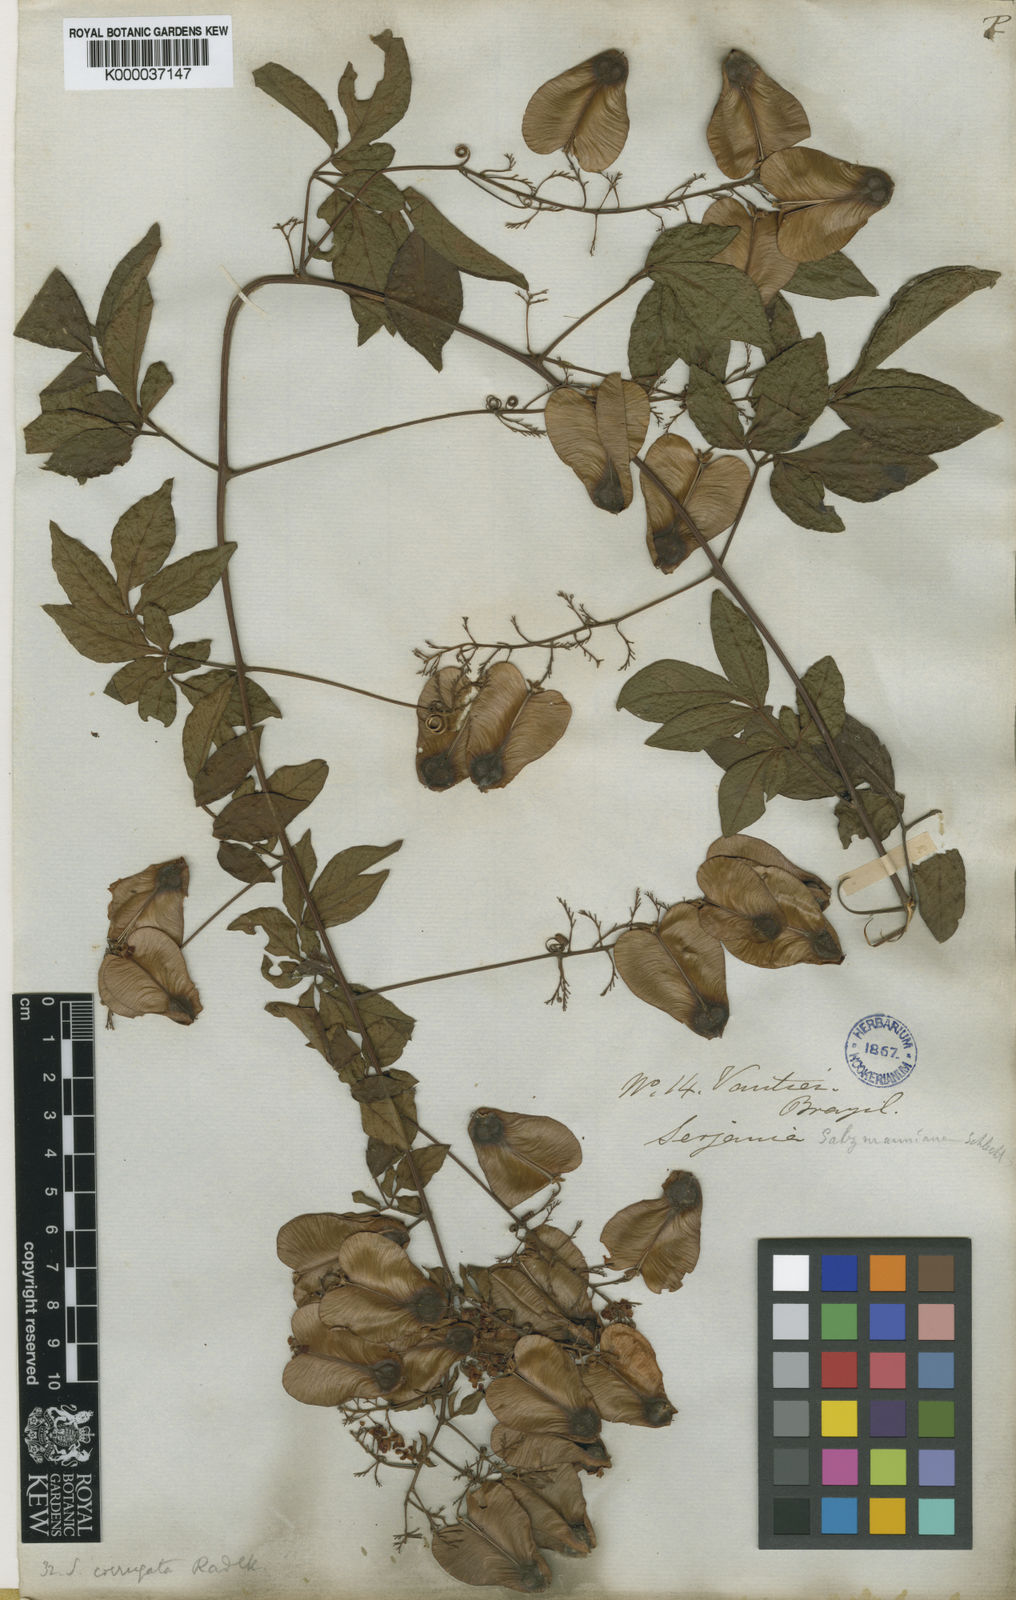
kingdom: Plantae
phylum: Tracheophyta
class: Magnoliopsida
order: Sapindales
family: Sapindaceae
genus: Serjania
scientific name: Serjania corrugata
